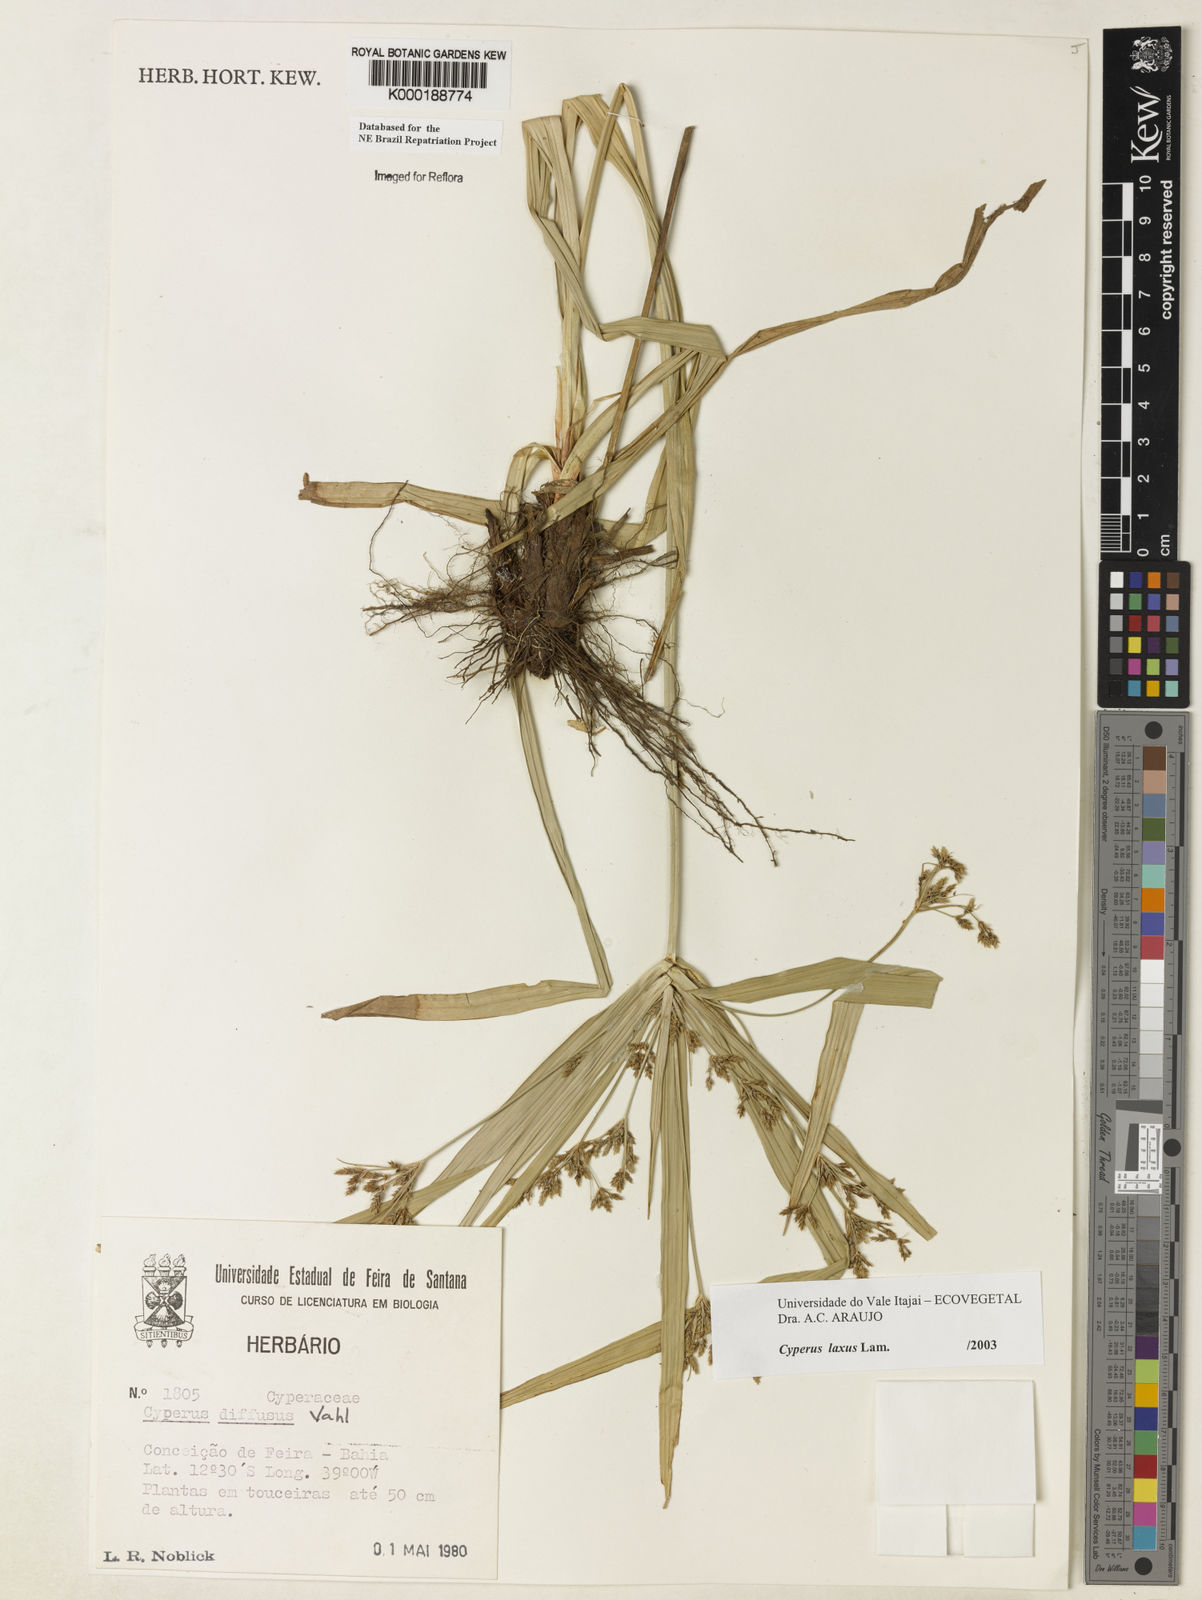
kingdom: Plantae
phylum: Tracheophyta
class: Liliopsida
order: Poales
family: Cyperaceae
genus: Cyperus
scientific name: Cyperus laxus
